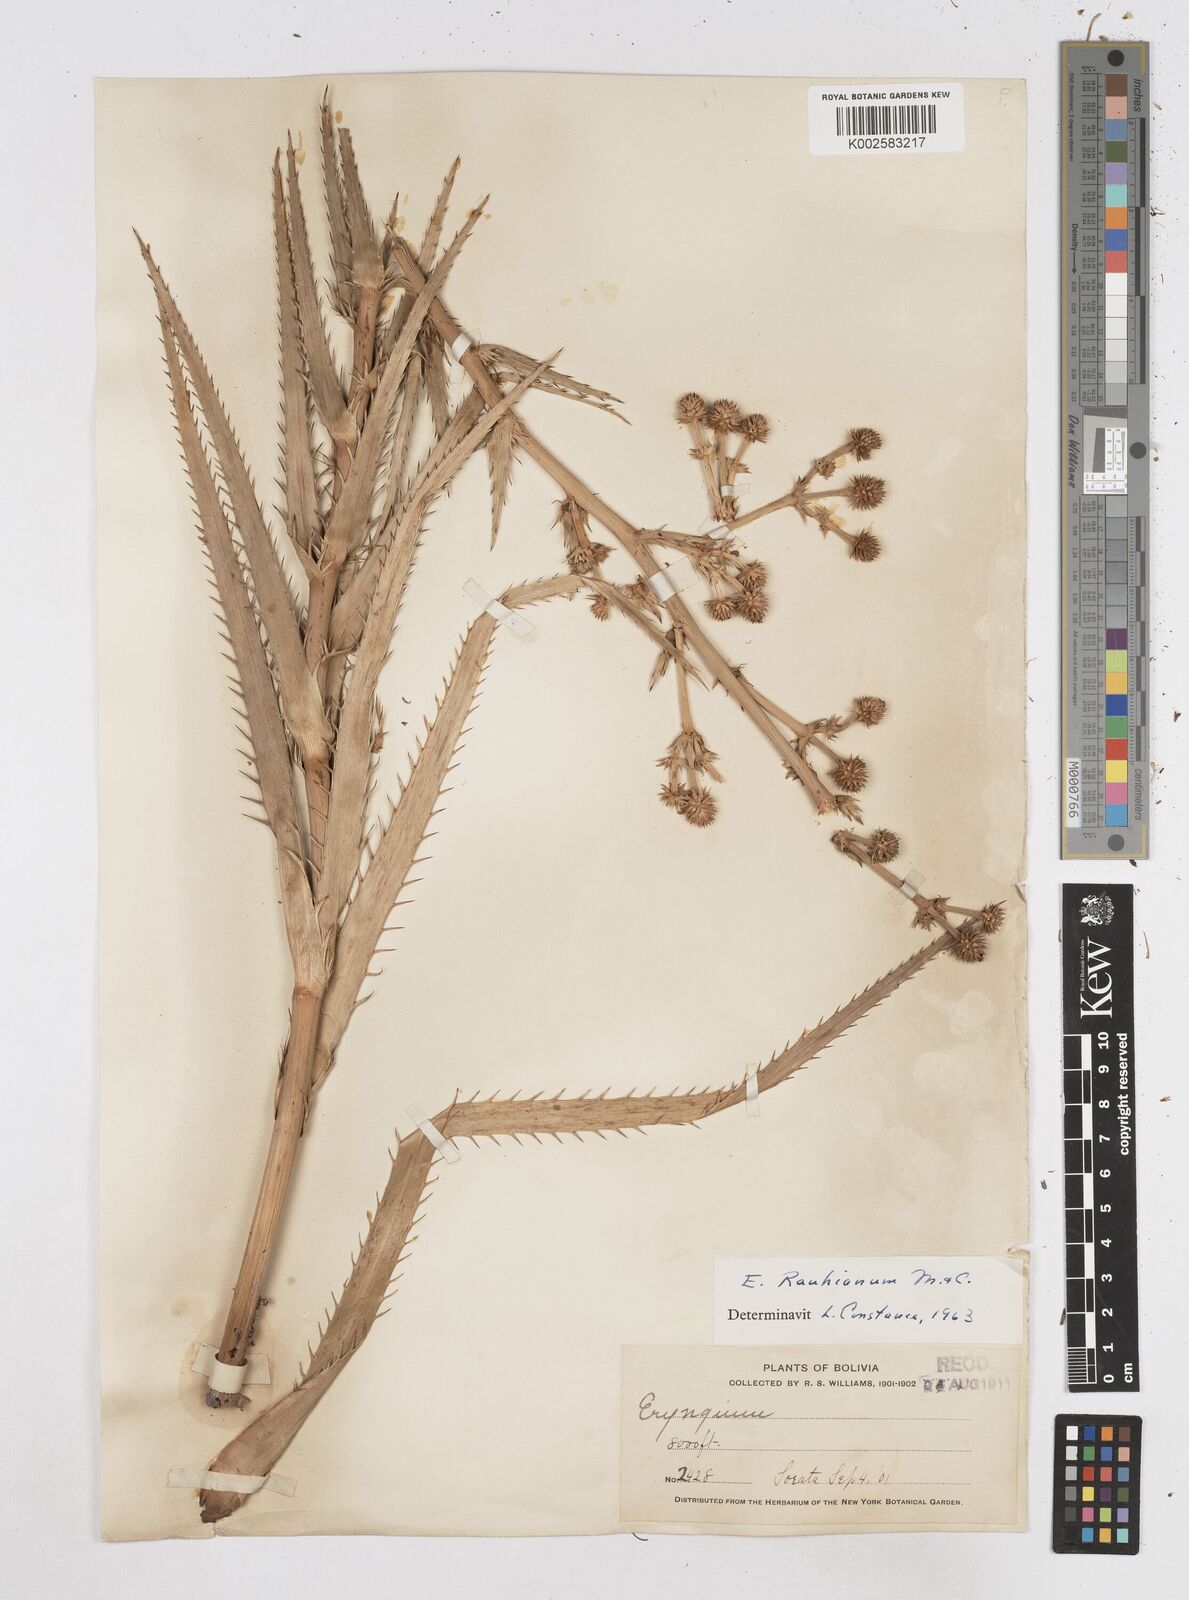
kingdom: Plantae
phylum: Tracheophyta
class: Magnoliopsida
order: Apiales
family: Apiaceae
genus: Eryngium
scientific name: Eryngium eurycephalum
